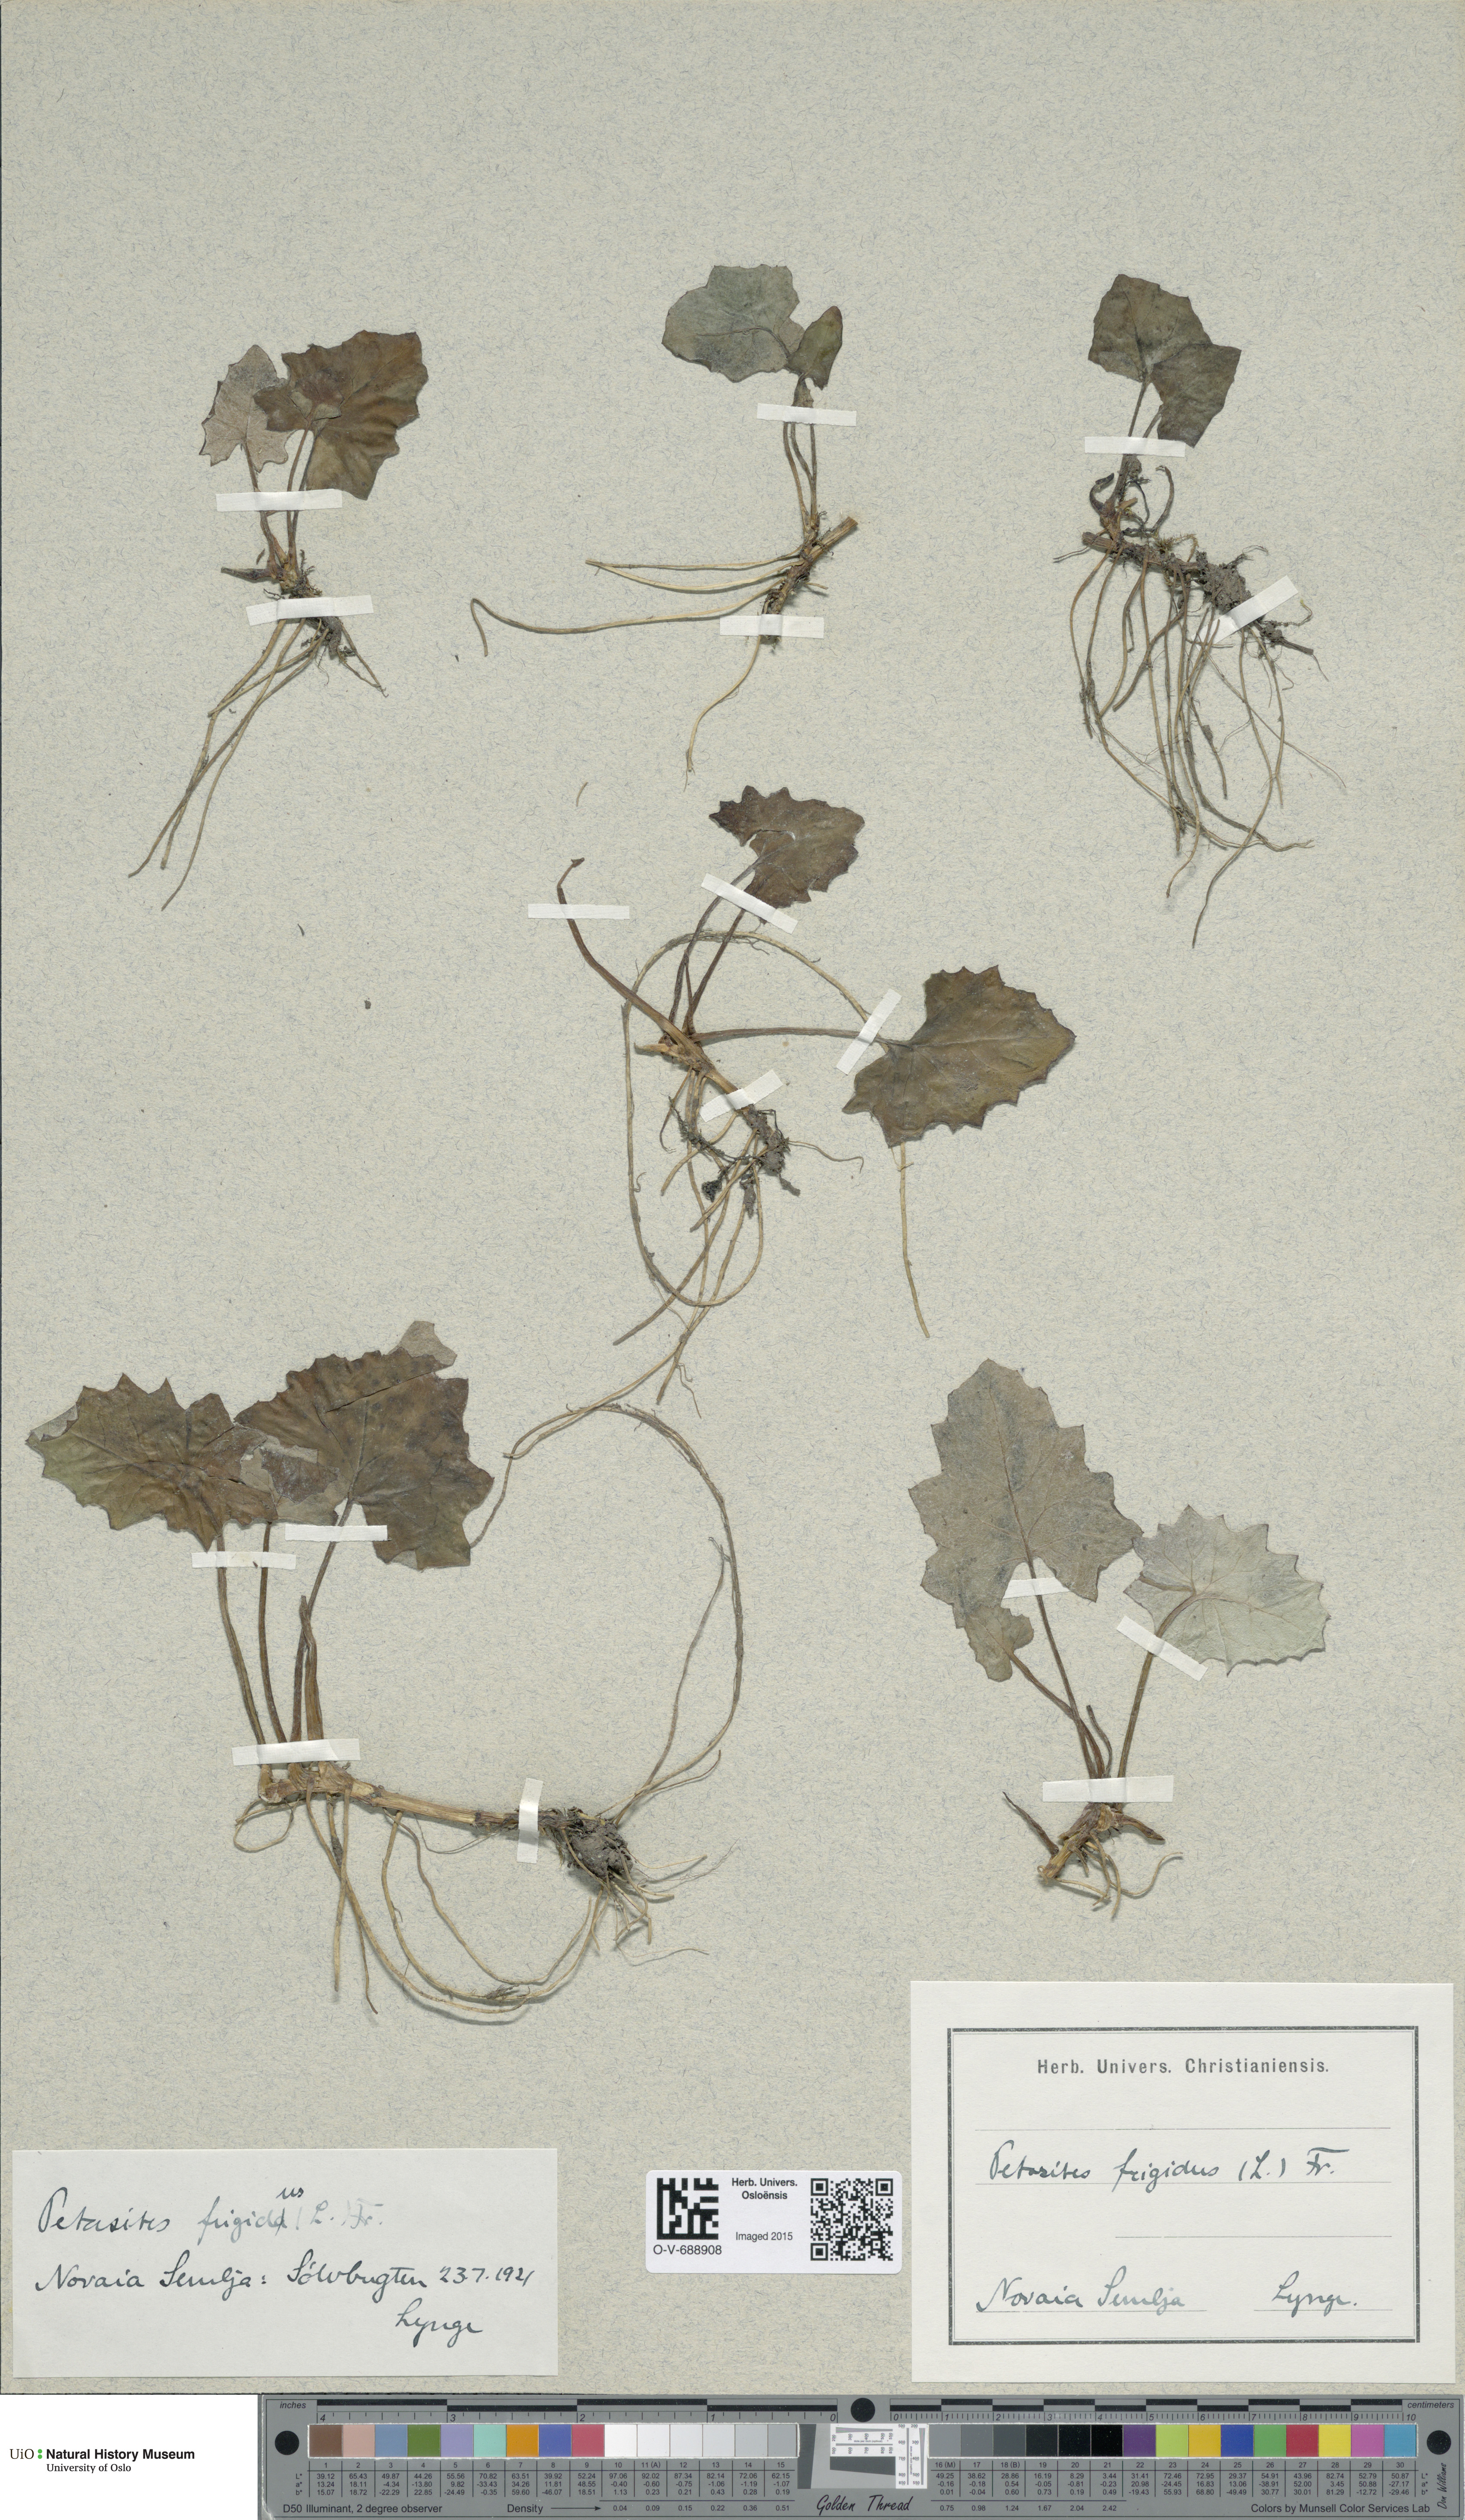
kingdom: Plantae
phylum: Tracheophyta
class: Magnoliopsida
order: Asterales
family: Asteraceae
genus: Petasites
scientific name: Petasites frigidus
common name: Arctic butterbur
